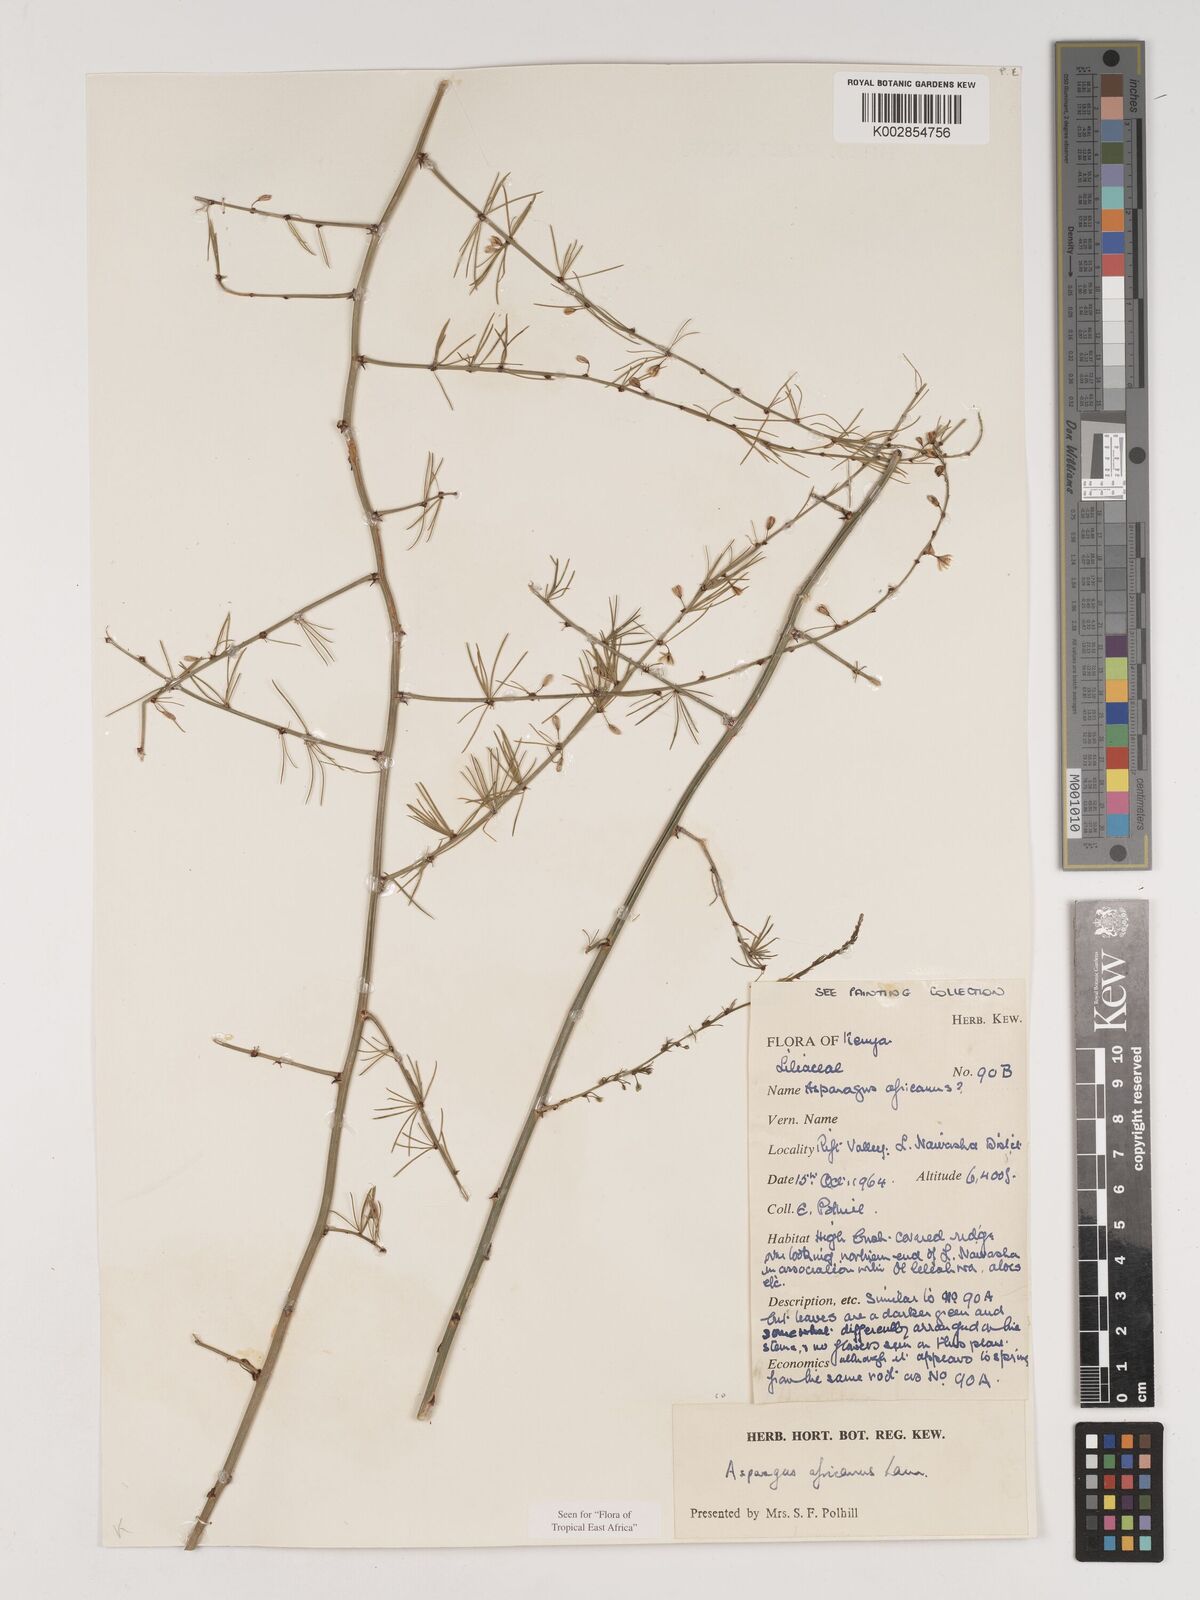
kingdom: Plantae
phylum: Tracheophyta
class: Liliopsida
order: Asparagales
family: Asparagaceae
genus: Asparagus
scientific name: Asparagus africanus
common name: Asparagus-fern
